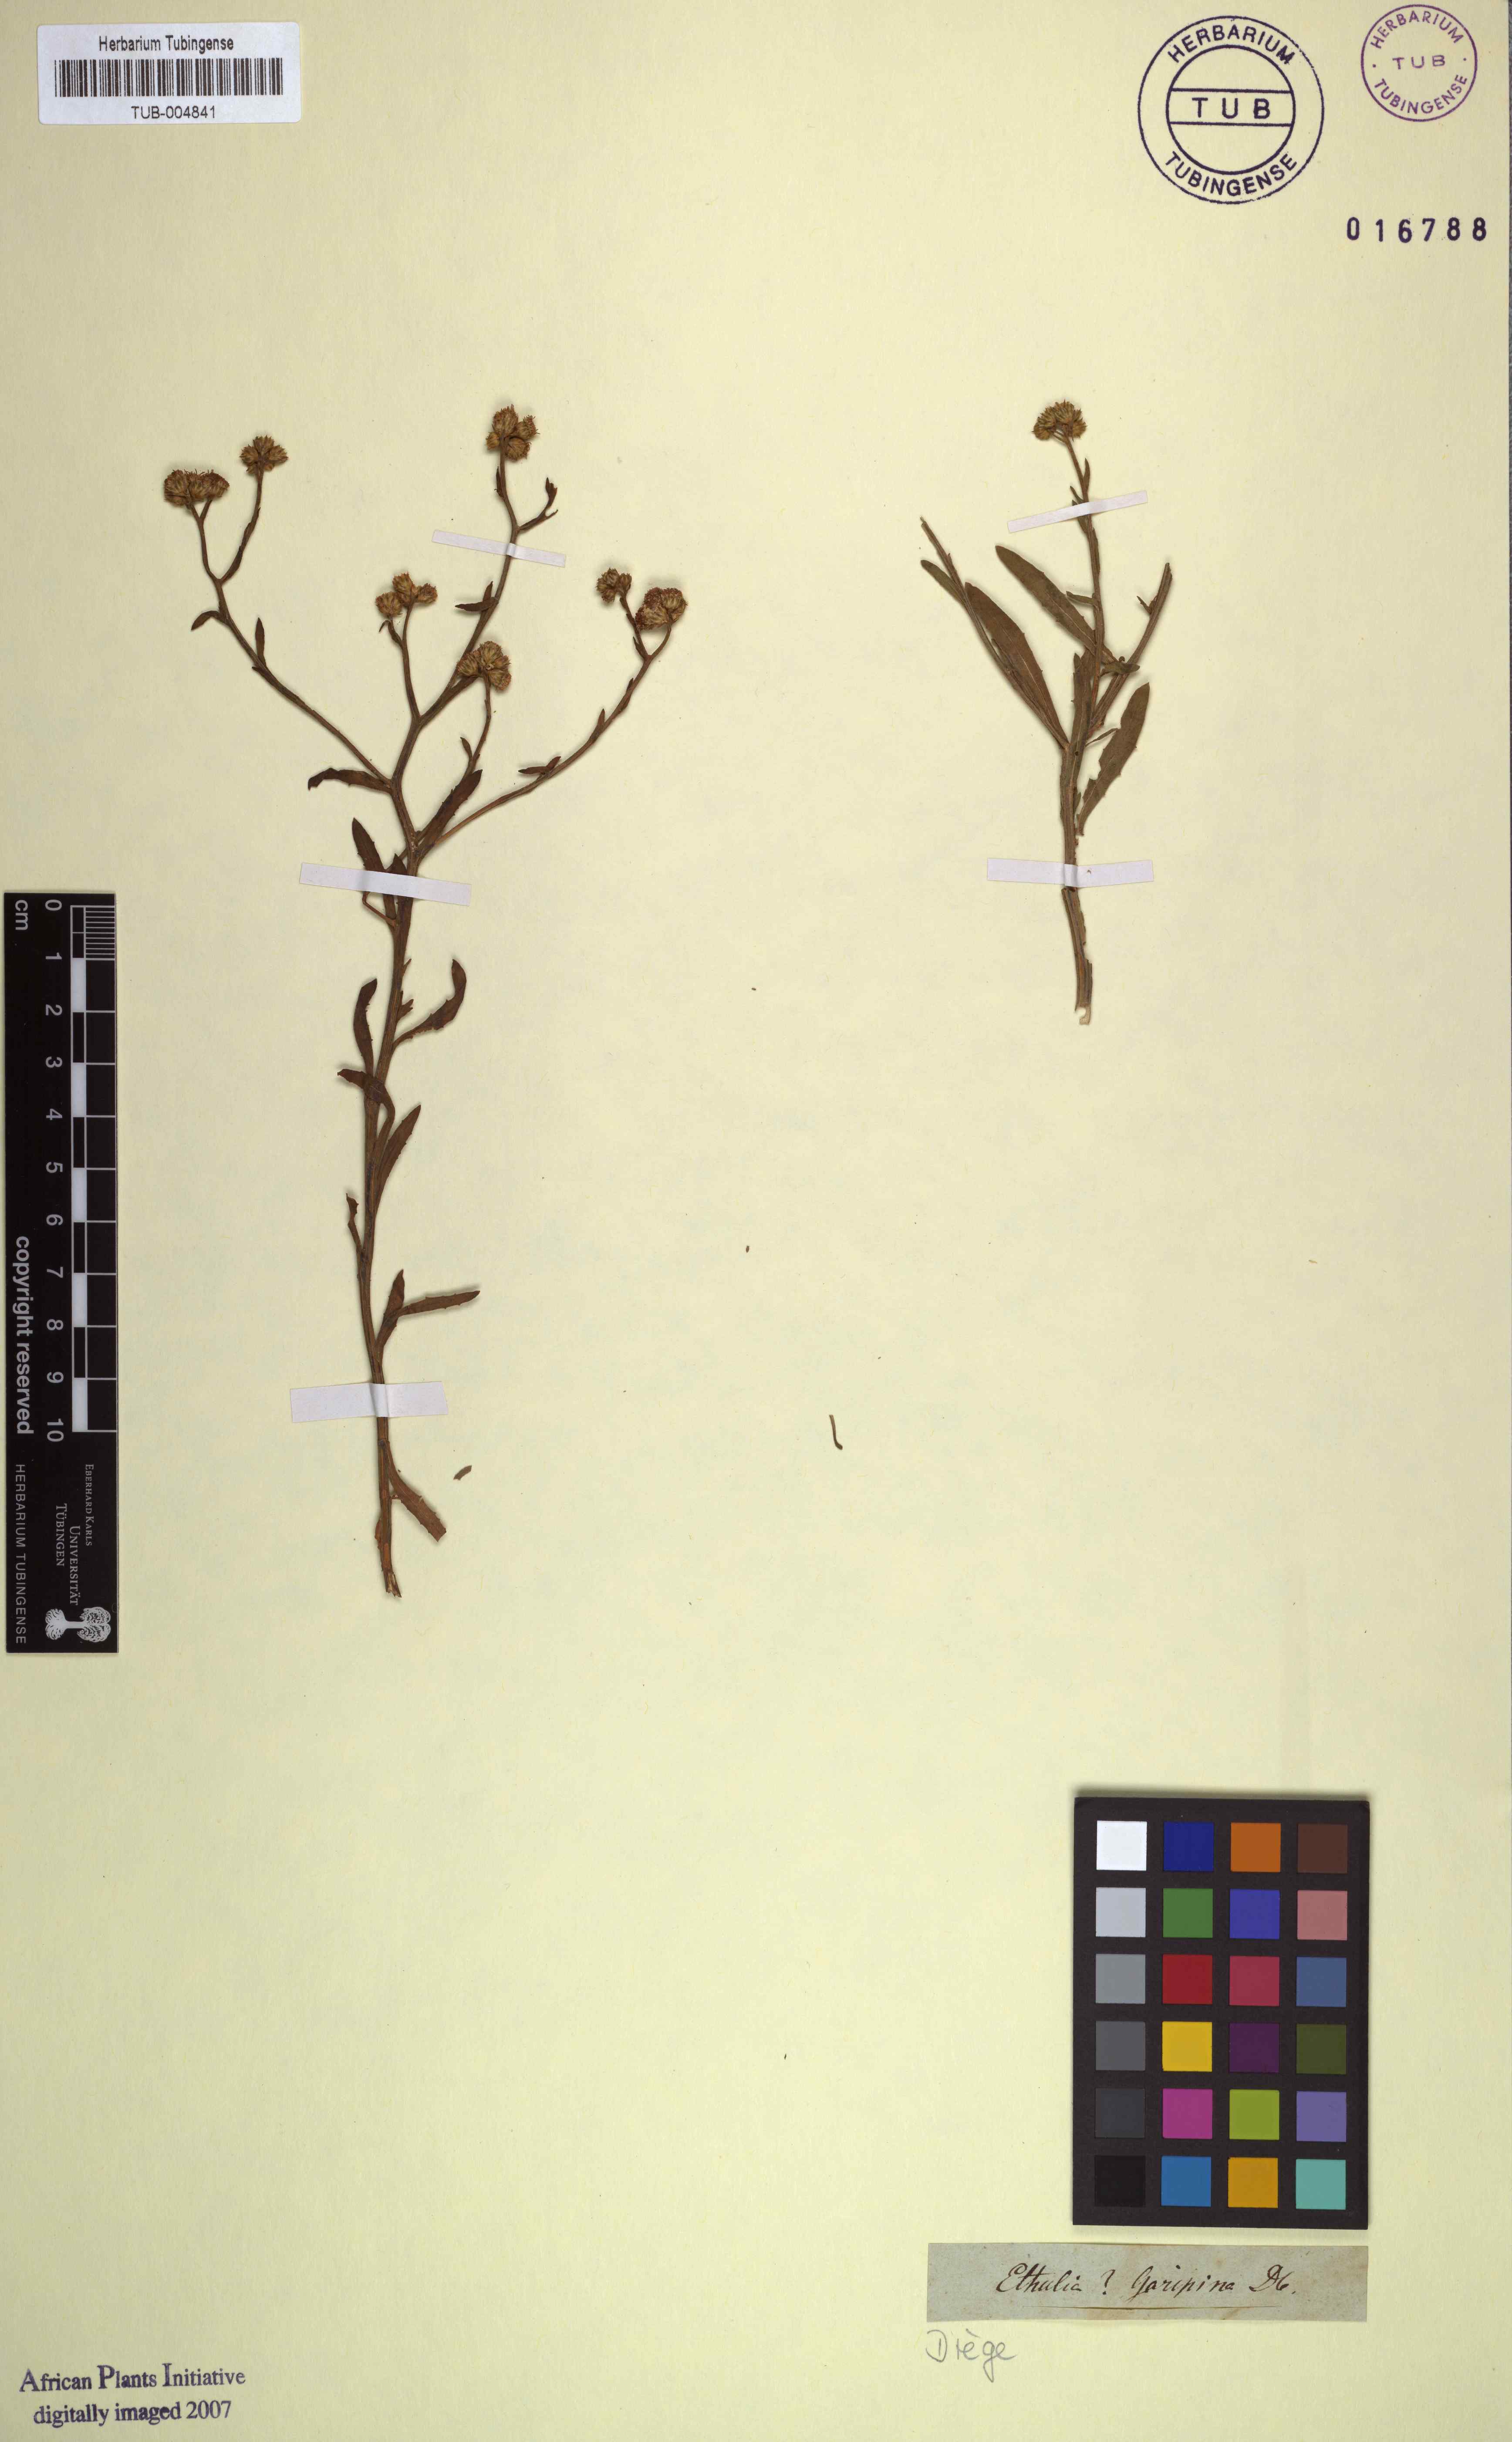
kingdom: Plantae
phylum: Tracheophyta
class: Magnoliopsida
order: Asterales
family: Asteraceae
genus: Ethulia
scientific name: Ethulia
